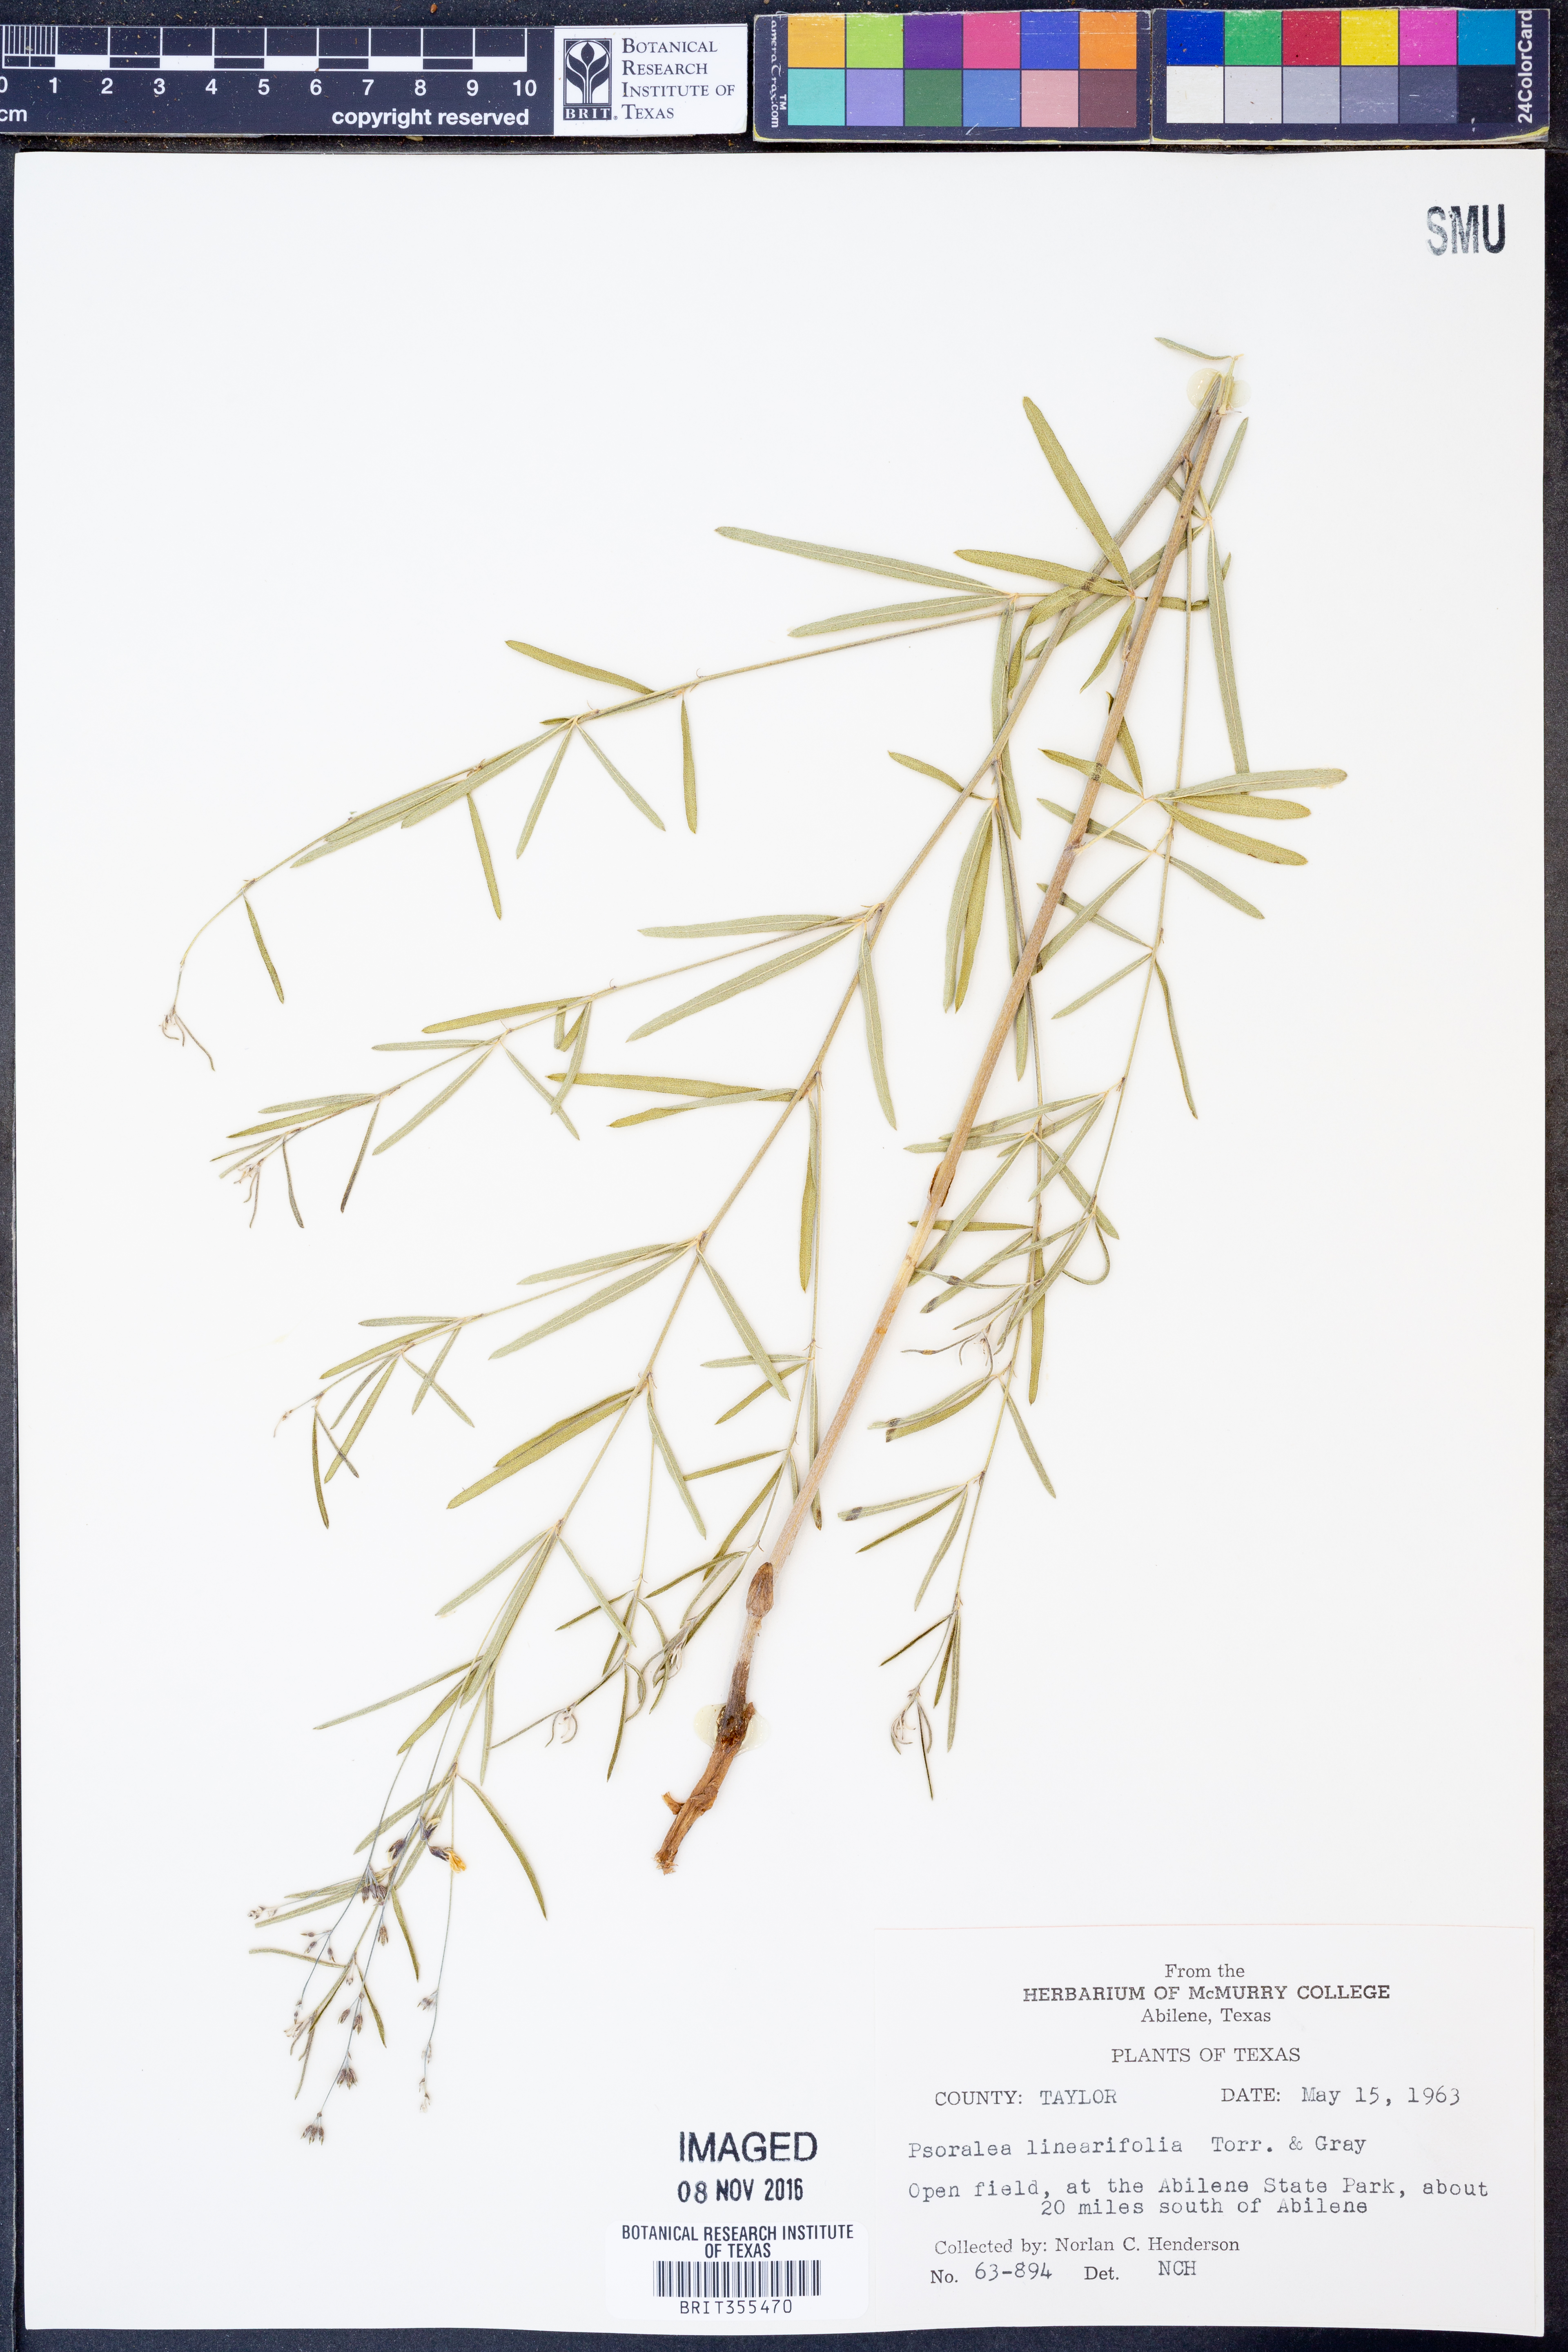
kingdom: Plantae
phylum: Tracheophyta
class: Magnoliopsida
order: Fabales
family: Fabaceae
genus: Pediomelum
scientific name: Pediomelum linearifolium
